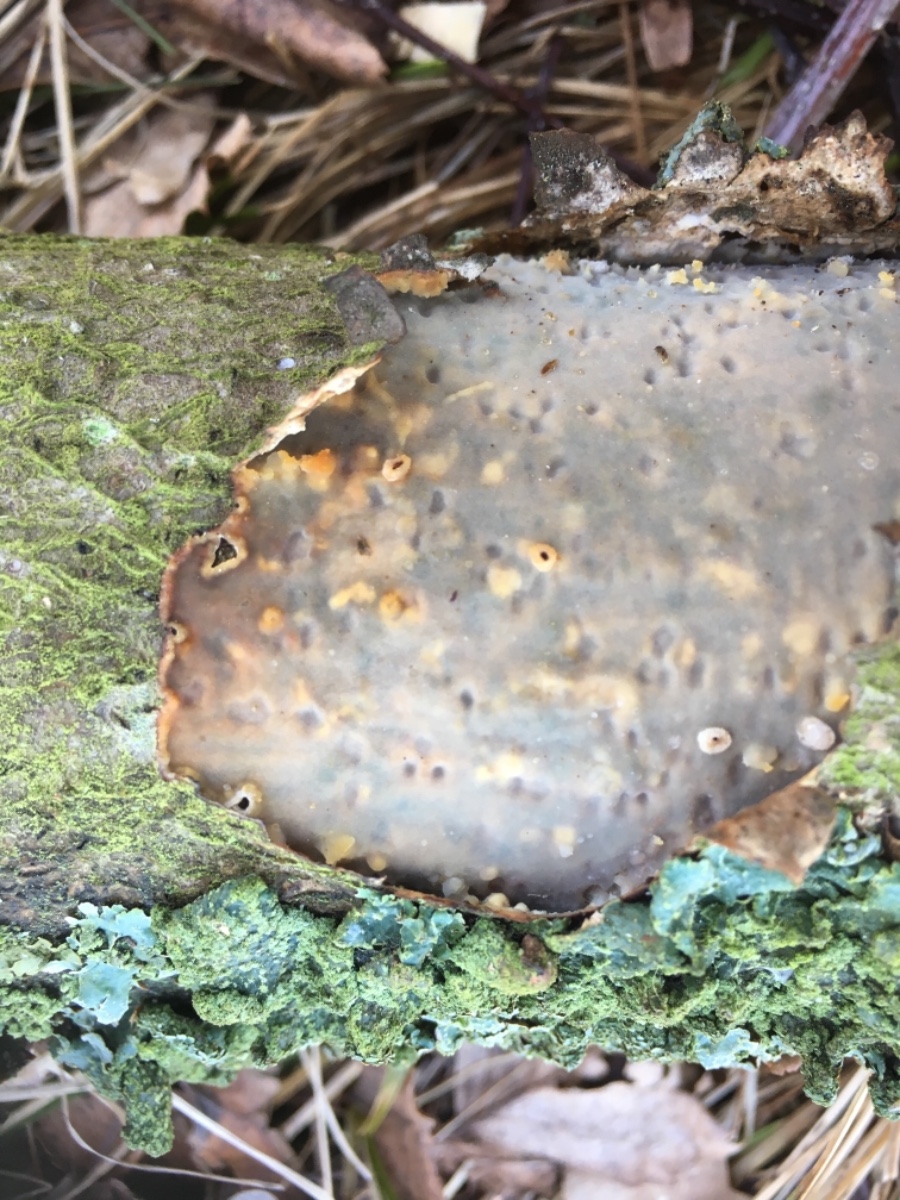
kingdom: Fungi
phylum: Basidiomycota
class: Agaricomycetes
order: Corticiales
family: Vuilleminiaceae
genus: Vuilleminia
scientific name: Vuilleminia comedens
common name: almindelig barksprænger
